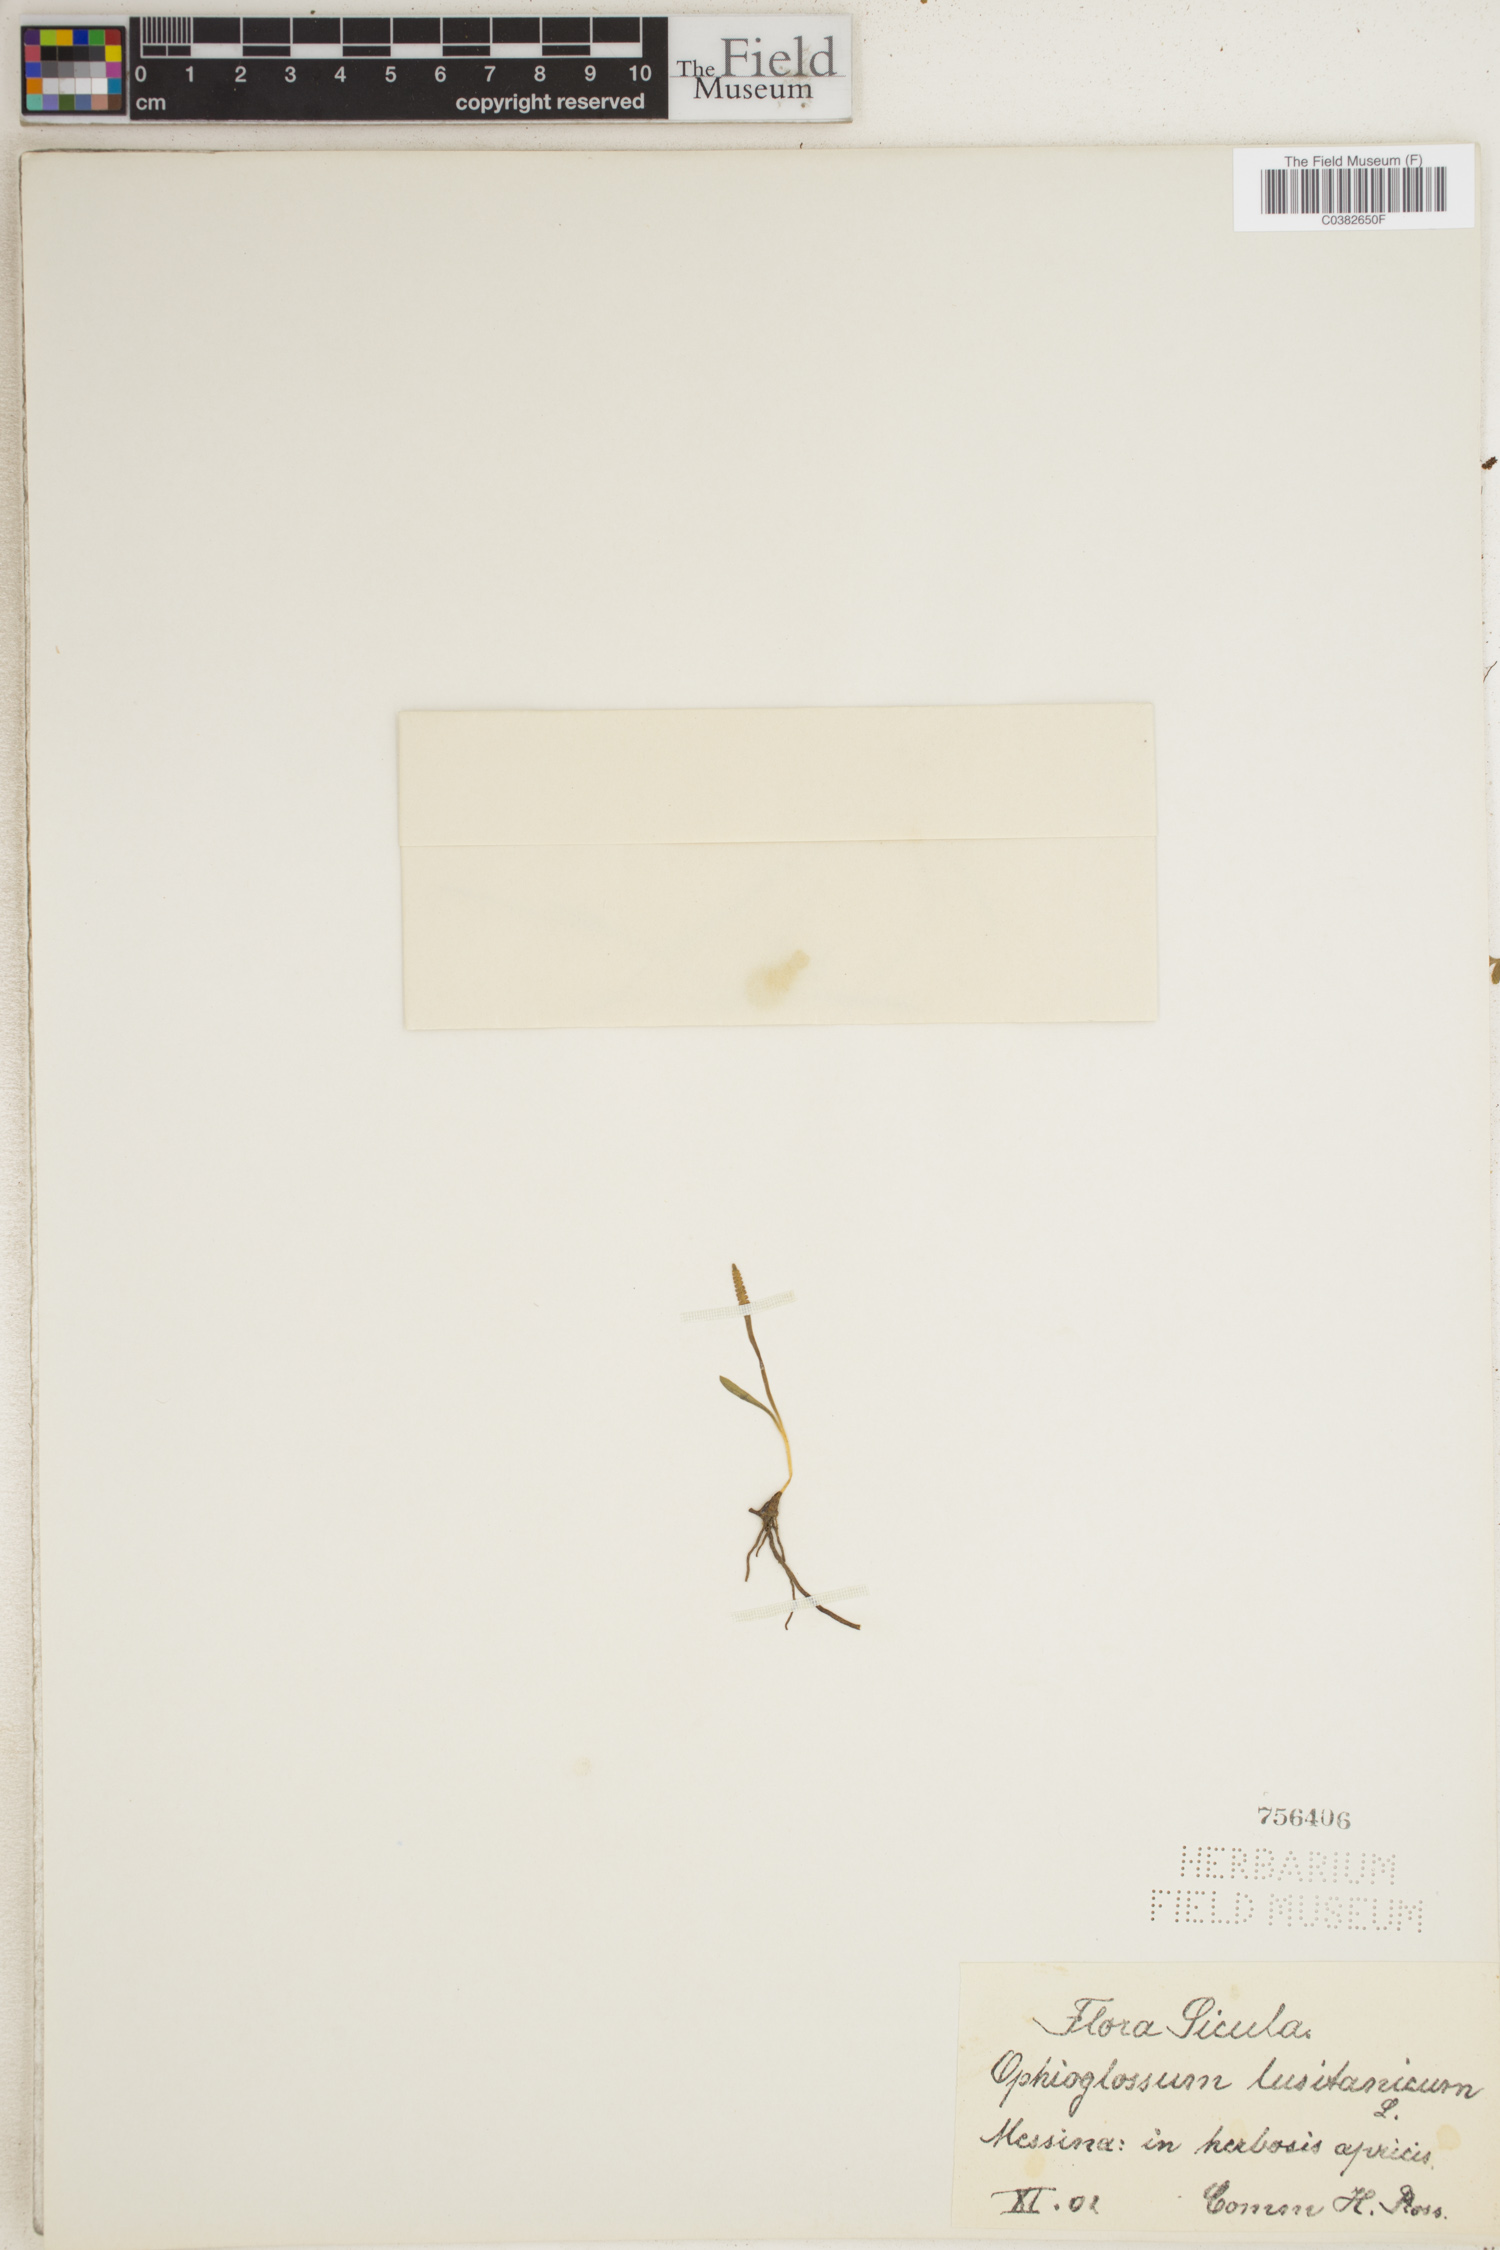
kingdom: Plantae
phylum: Tracheophyta
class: Polypodiopsida
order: Ophioglossales
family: Ophioglossaceae
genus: Ophioglossum
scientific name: Ophioglossum lusitanicum
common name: Least adder's-tongue
